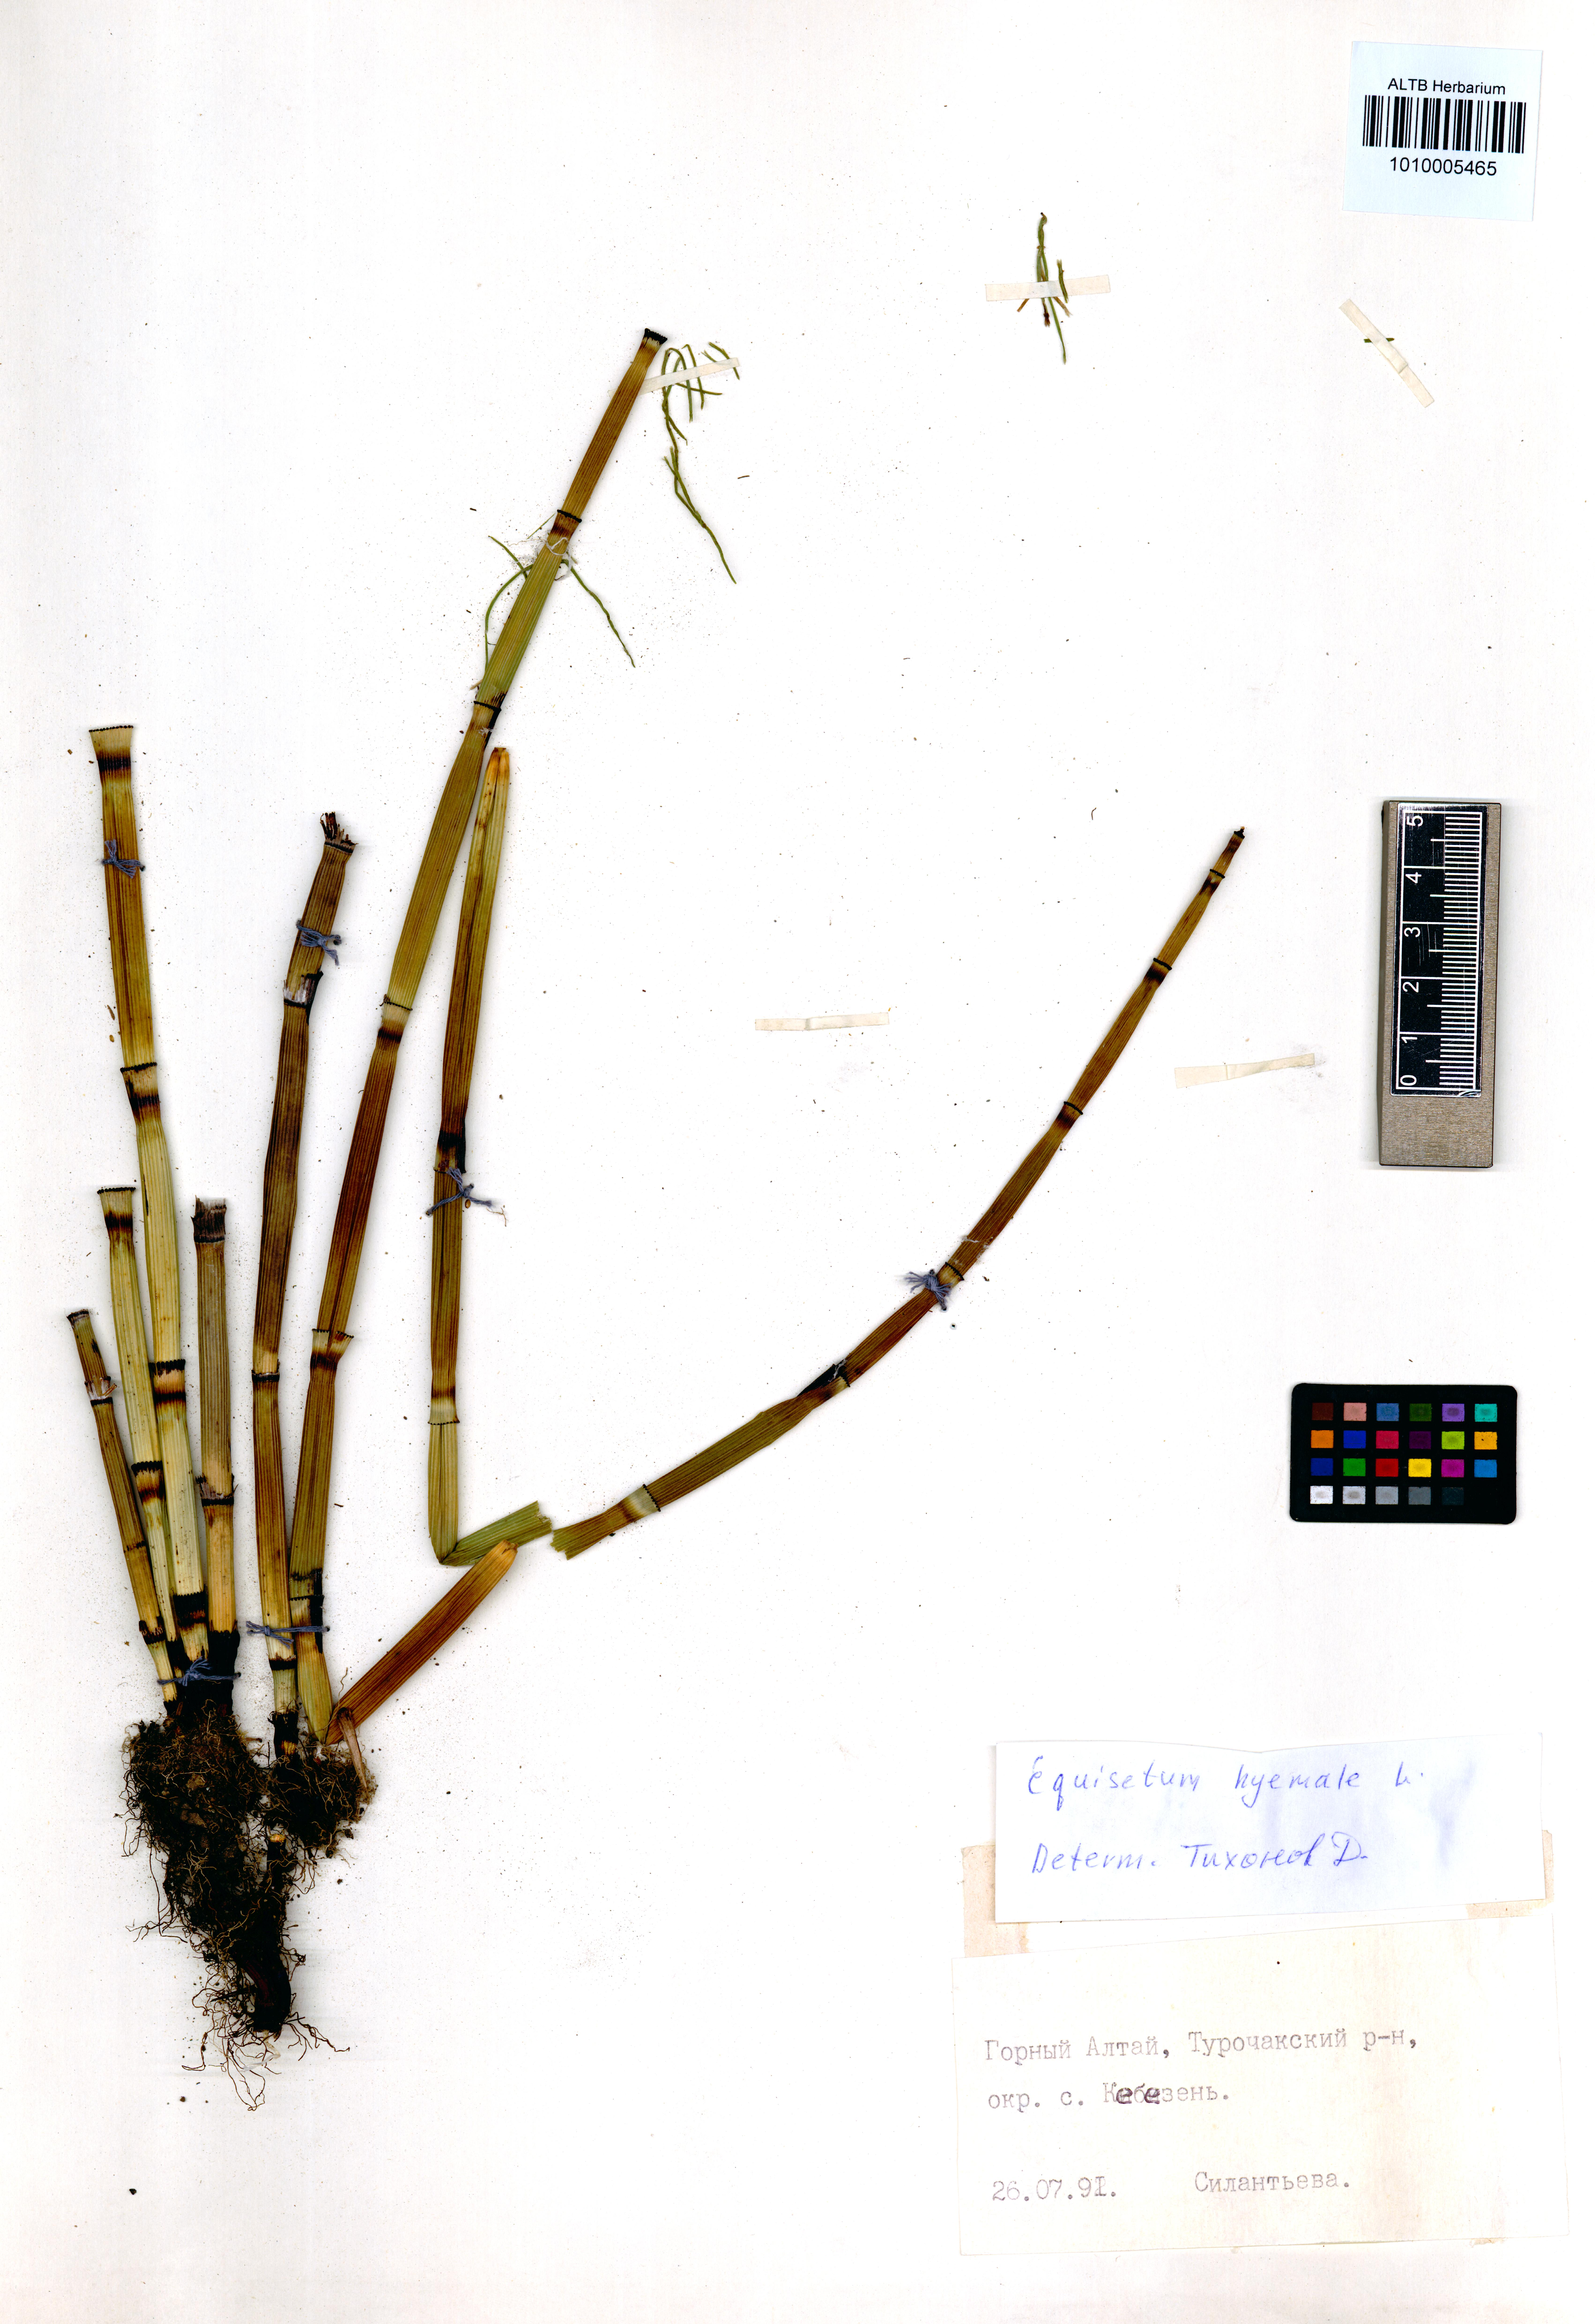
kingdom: Plantae
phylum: Tracheophyta
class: Polypodiopsida
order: Equisetales
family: Equisetaceae
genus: Equisetum
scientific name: Equisetum hyemale
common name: Rough horsetail
